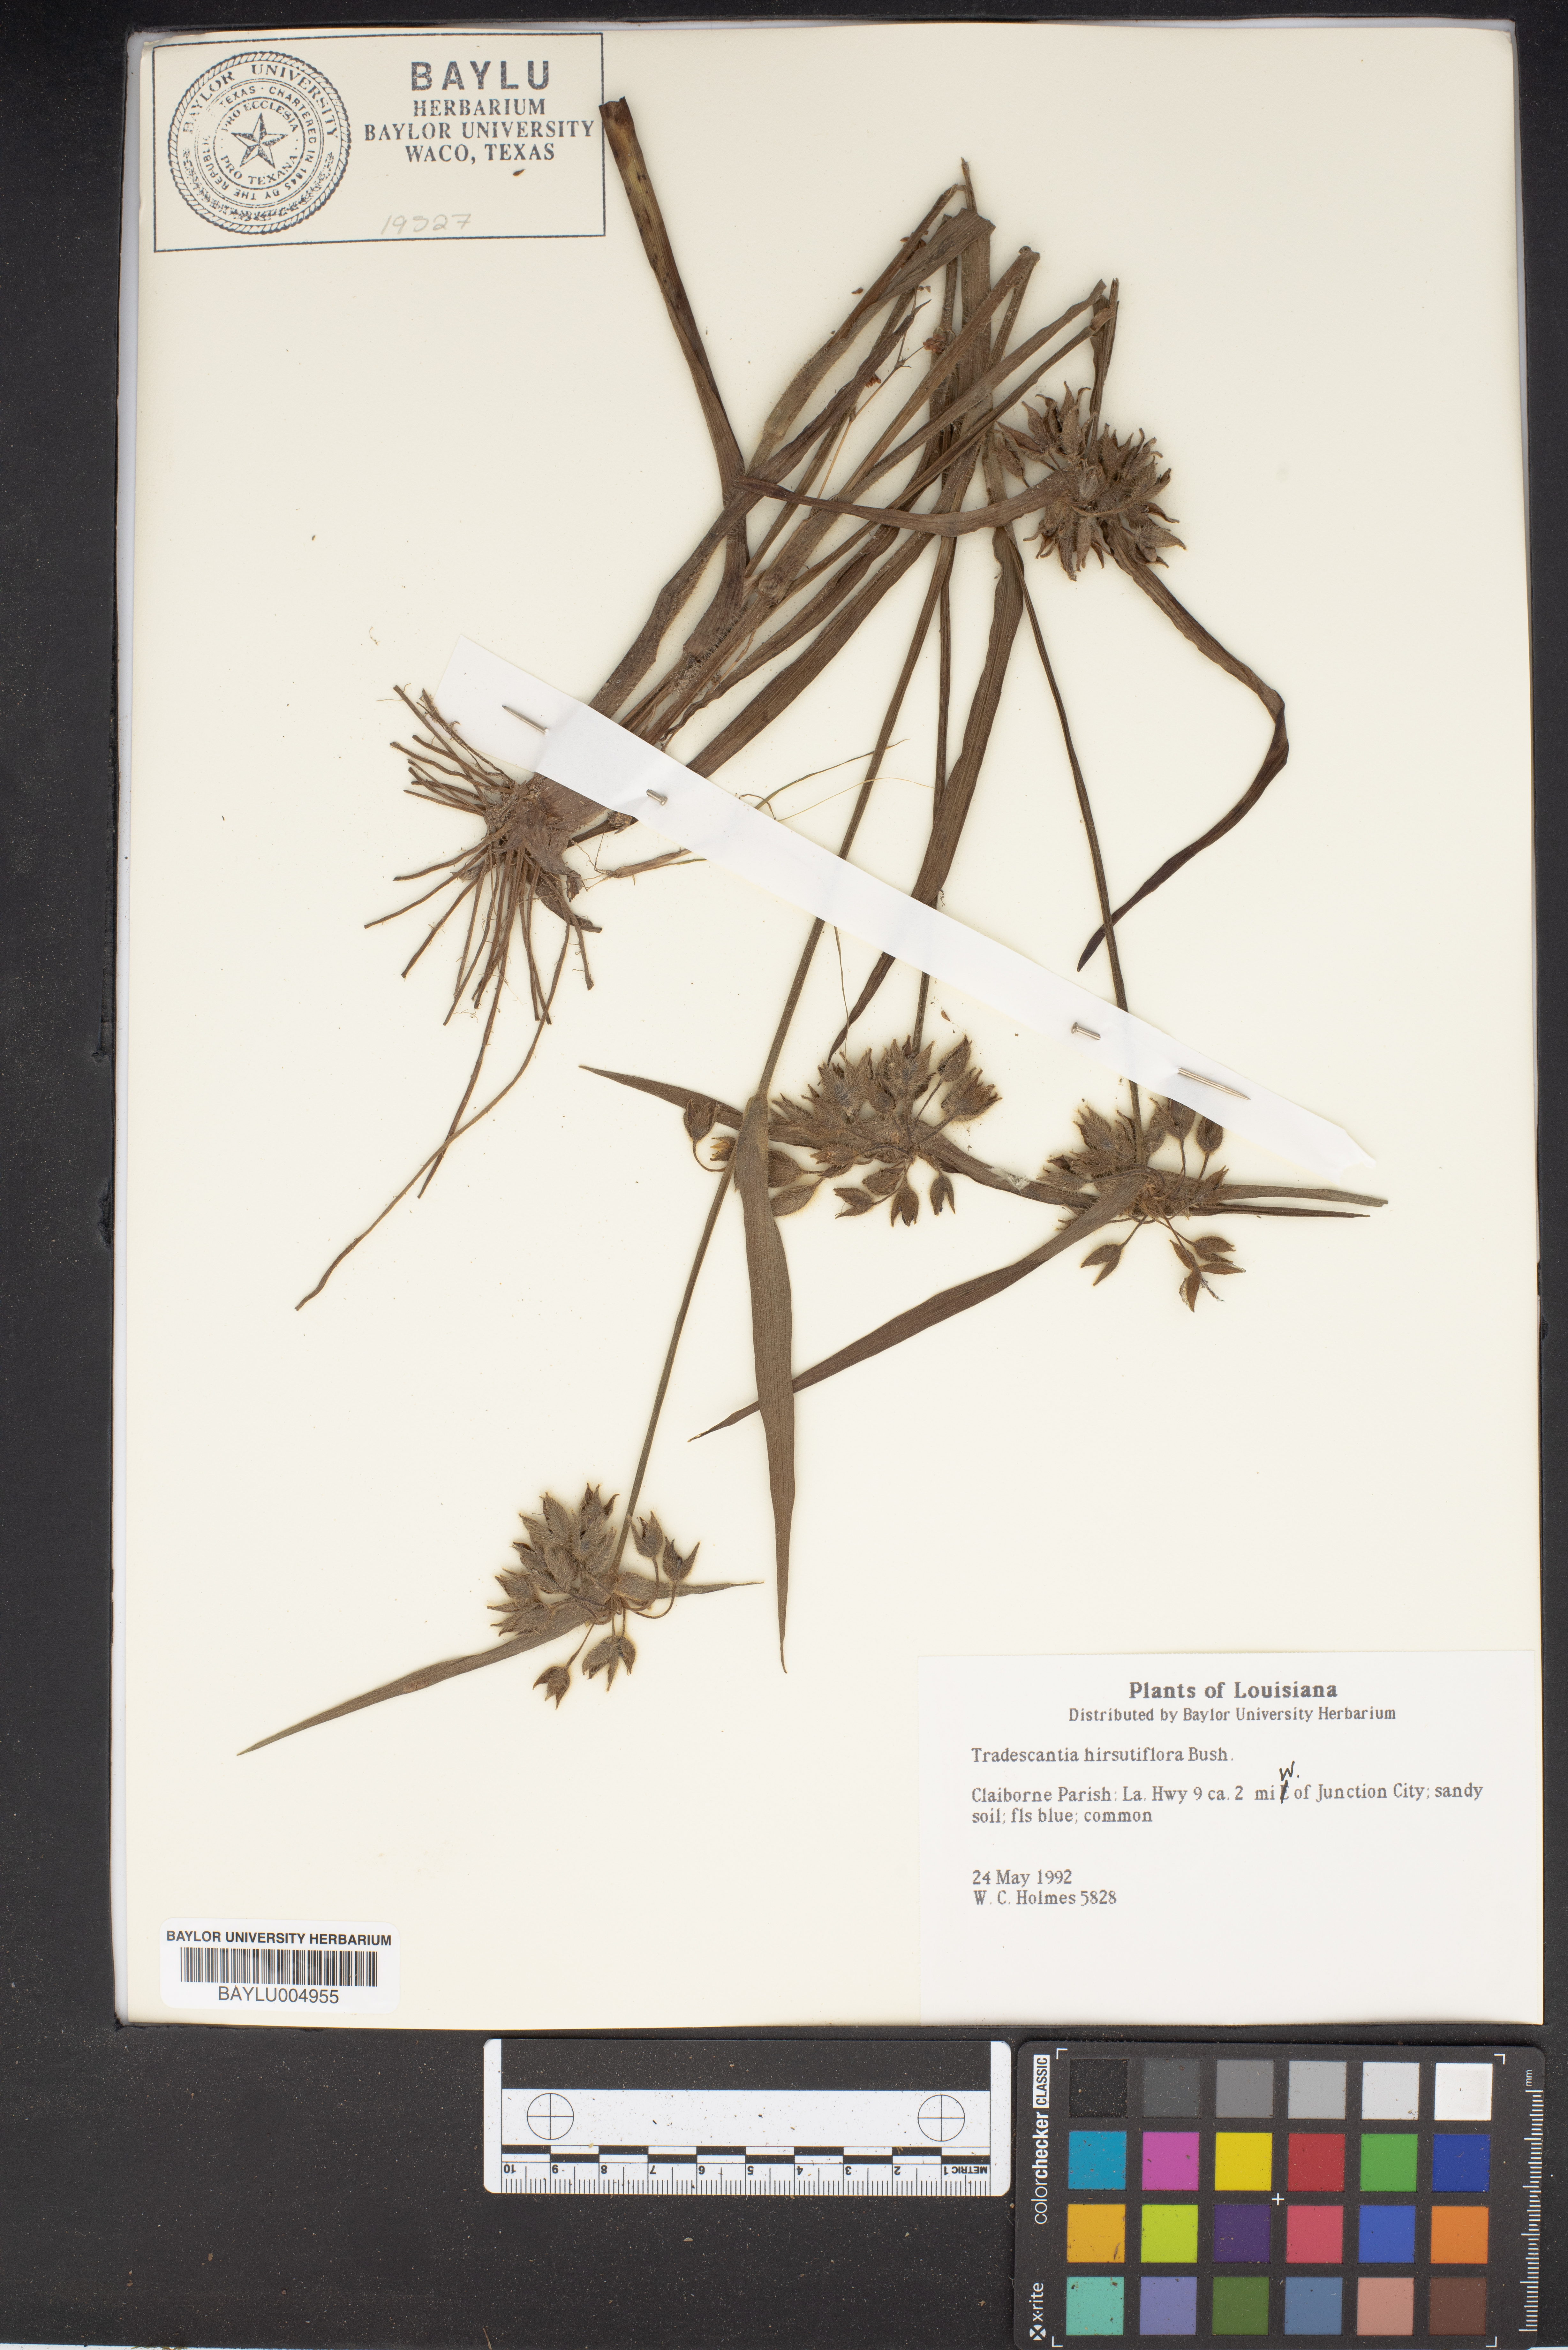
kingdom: Plantae
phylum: Tracheophyta
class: Liliopsida
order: Commelinales
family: Commelinaceae
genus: Tradescantia
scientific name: Tradescantia hirsutiflora
